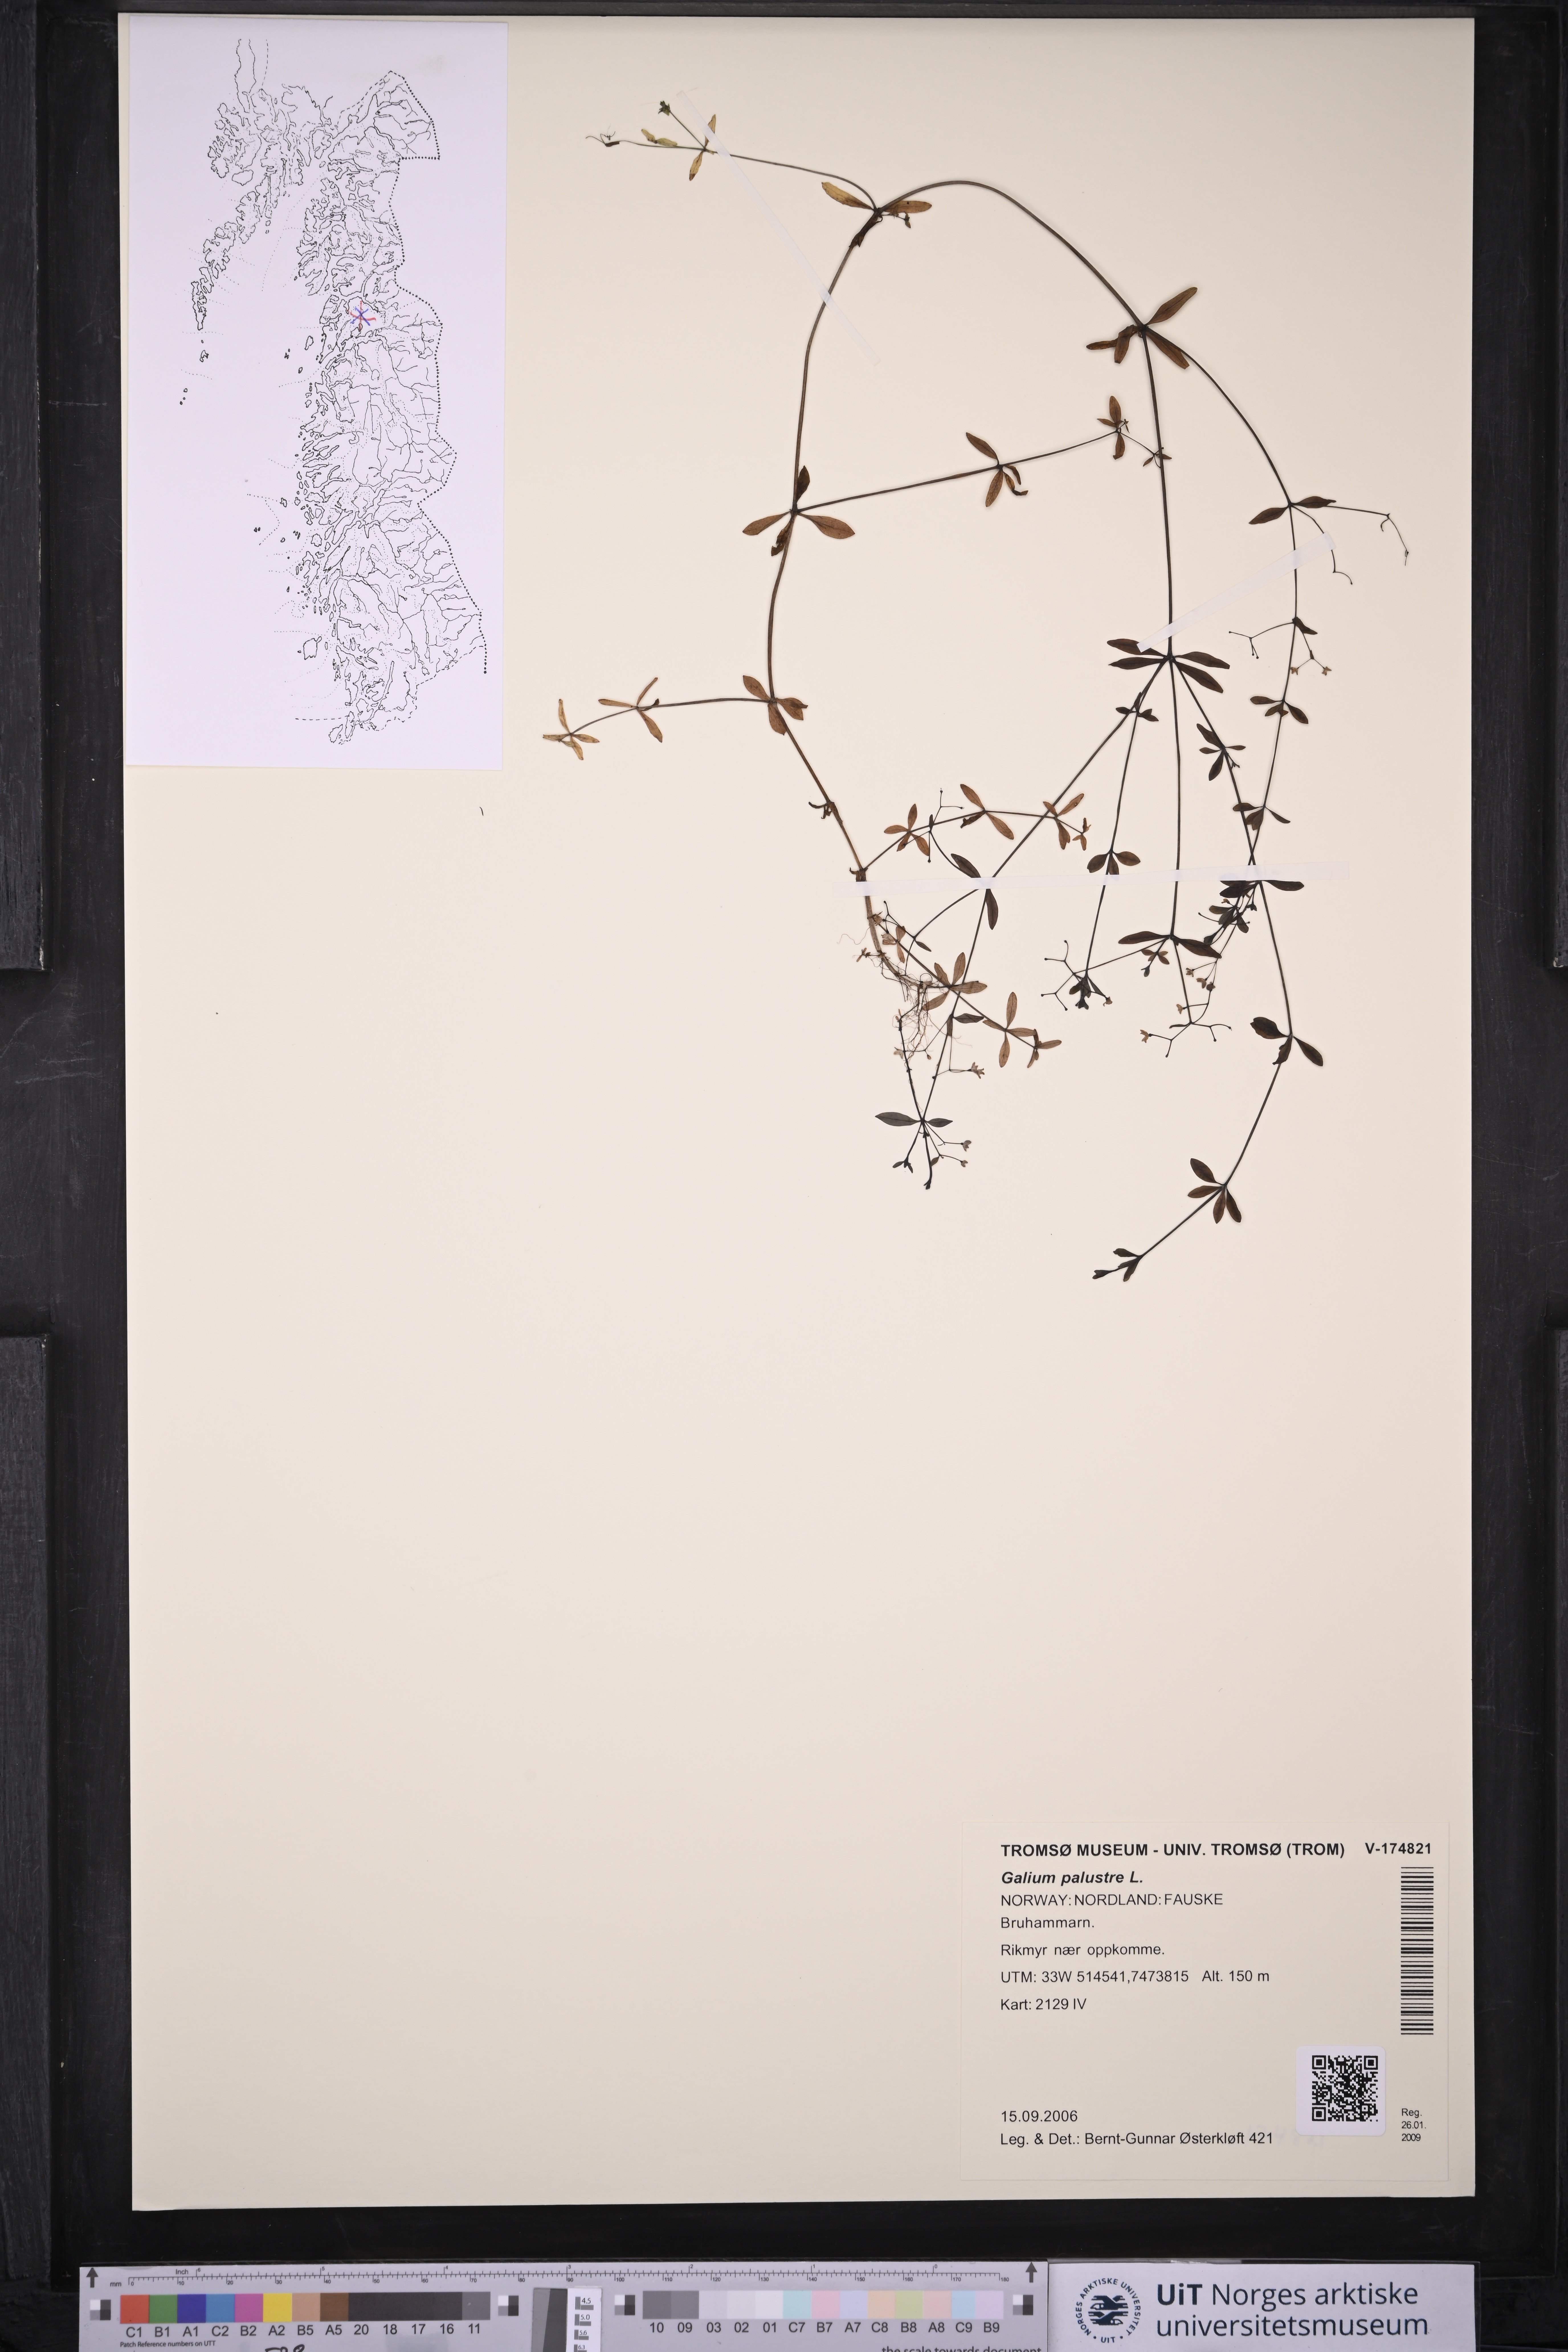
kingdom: Plantae
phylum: Tracheophyta
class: Magnoliopsida
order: Gentianales
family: Rubiaceae
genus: Galium
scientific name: Galium palustre
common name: Common marsh-bedstraw
